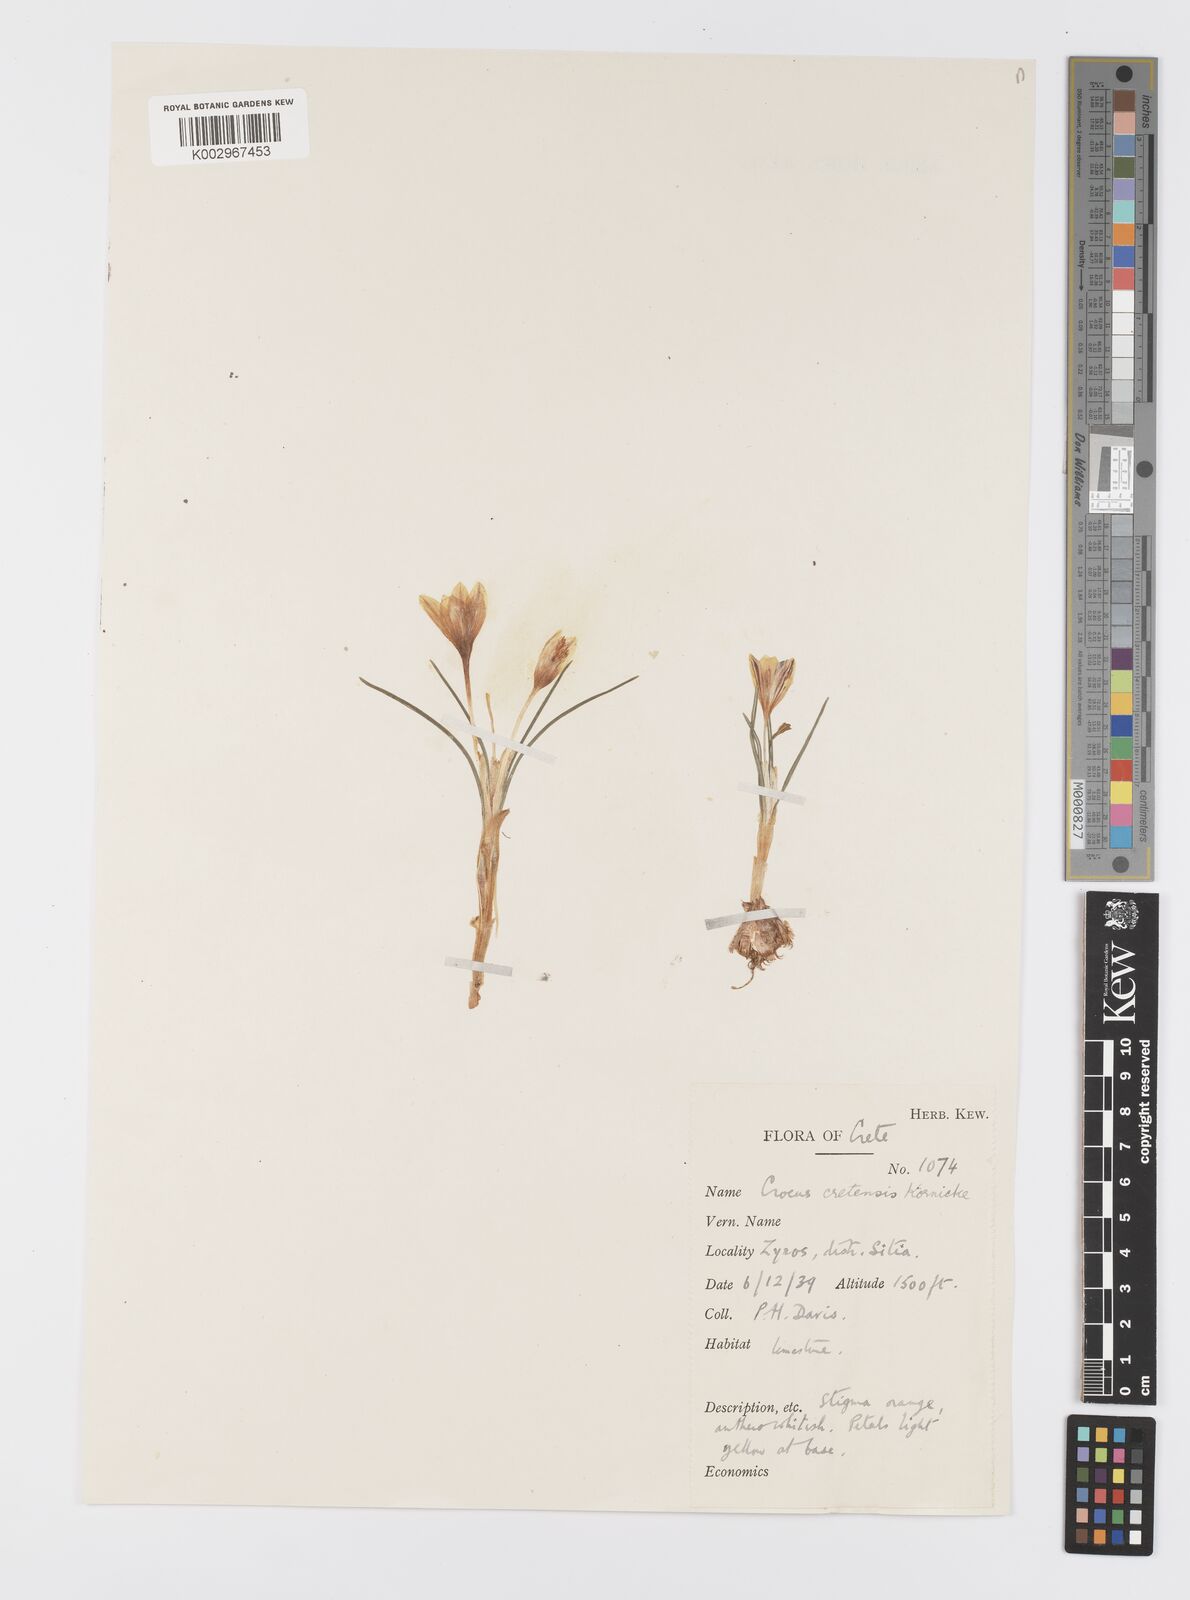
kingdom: Plantae
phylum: Tracheophyta
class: Liliopsida
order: Asparagales
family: Iridaceae
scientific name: Iridaceae
